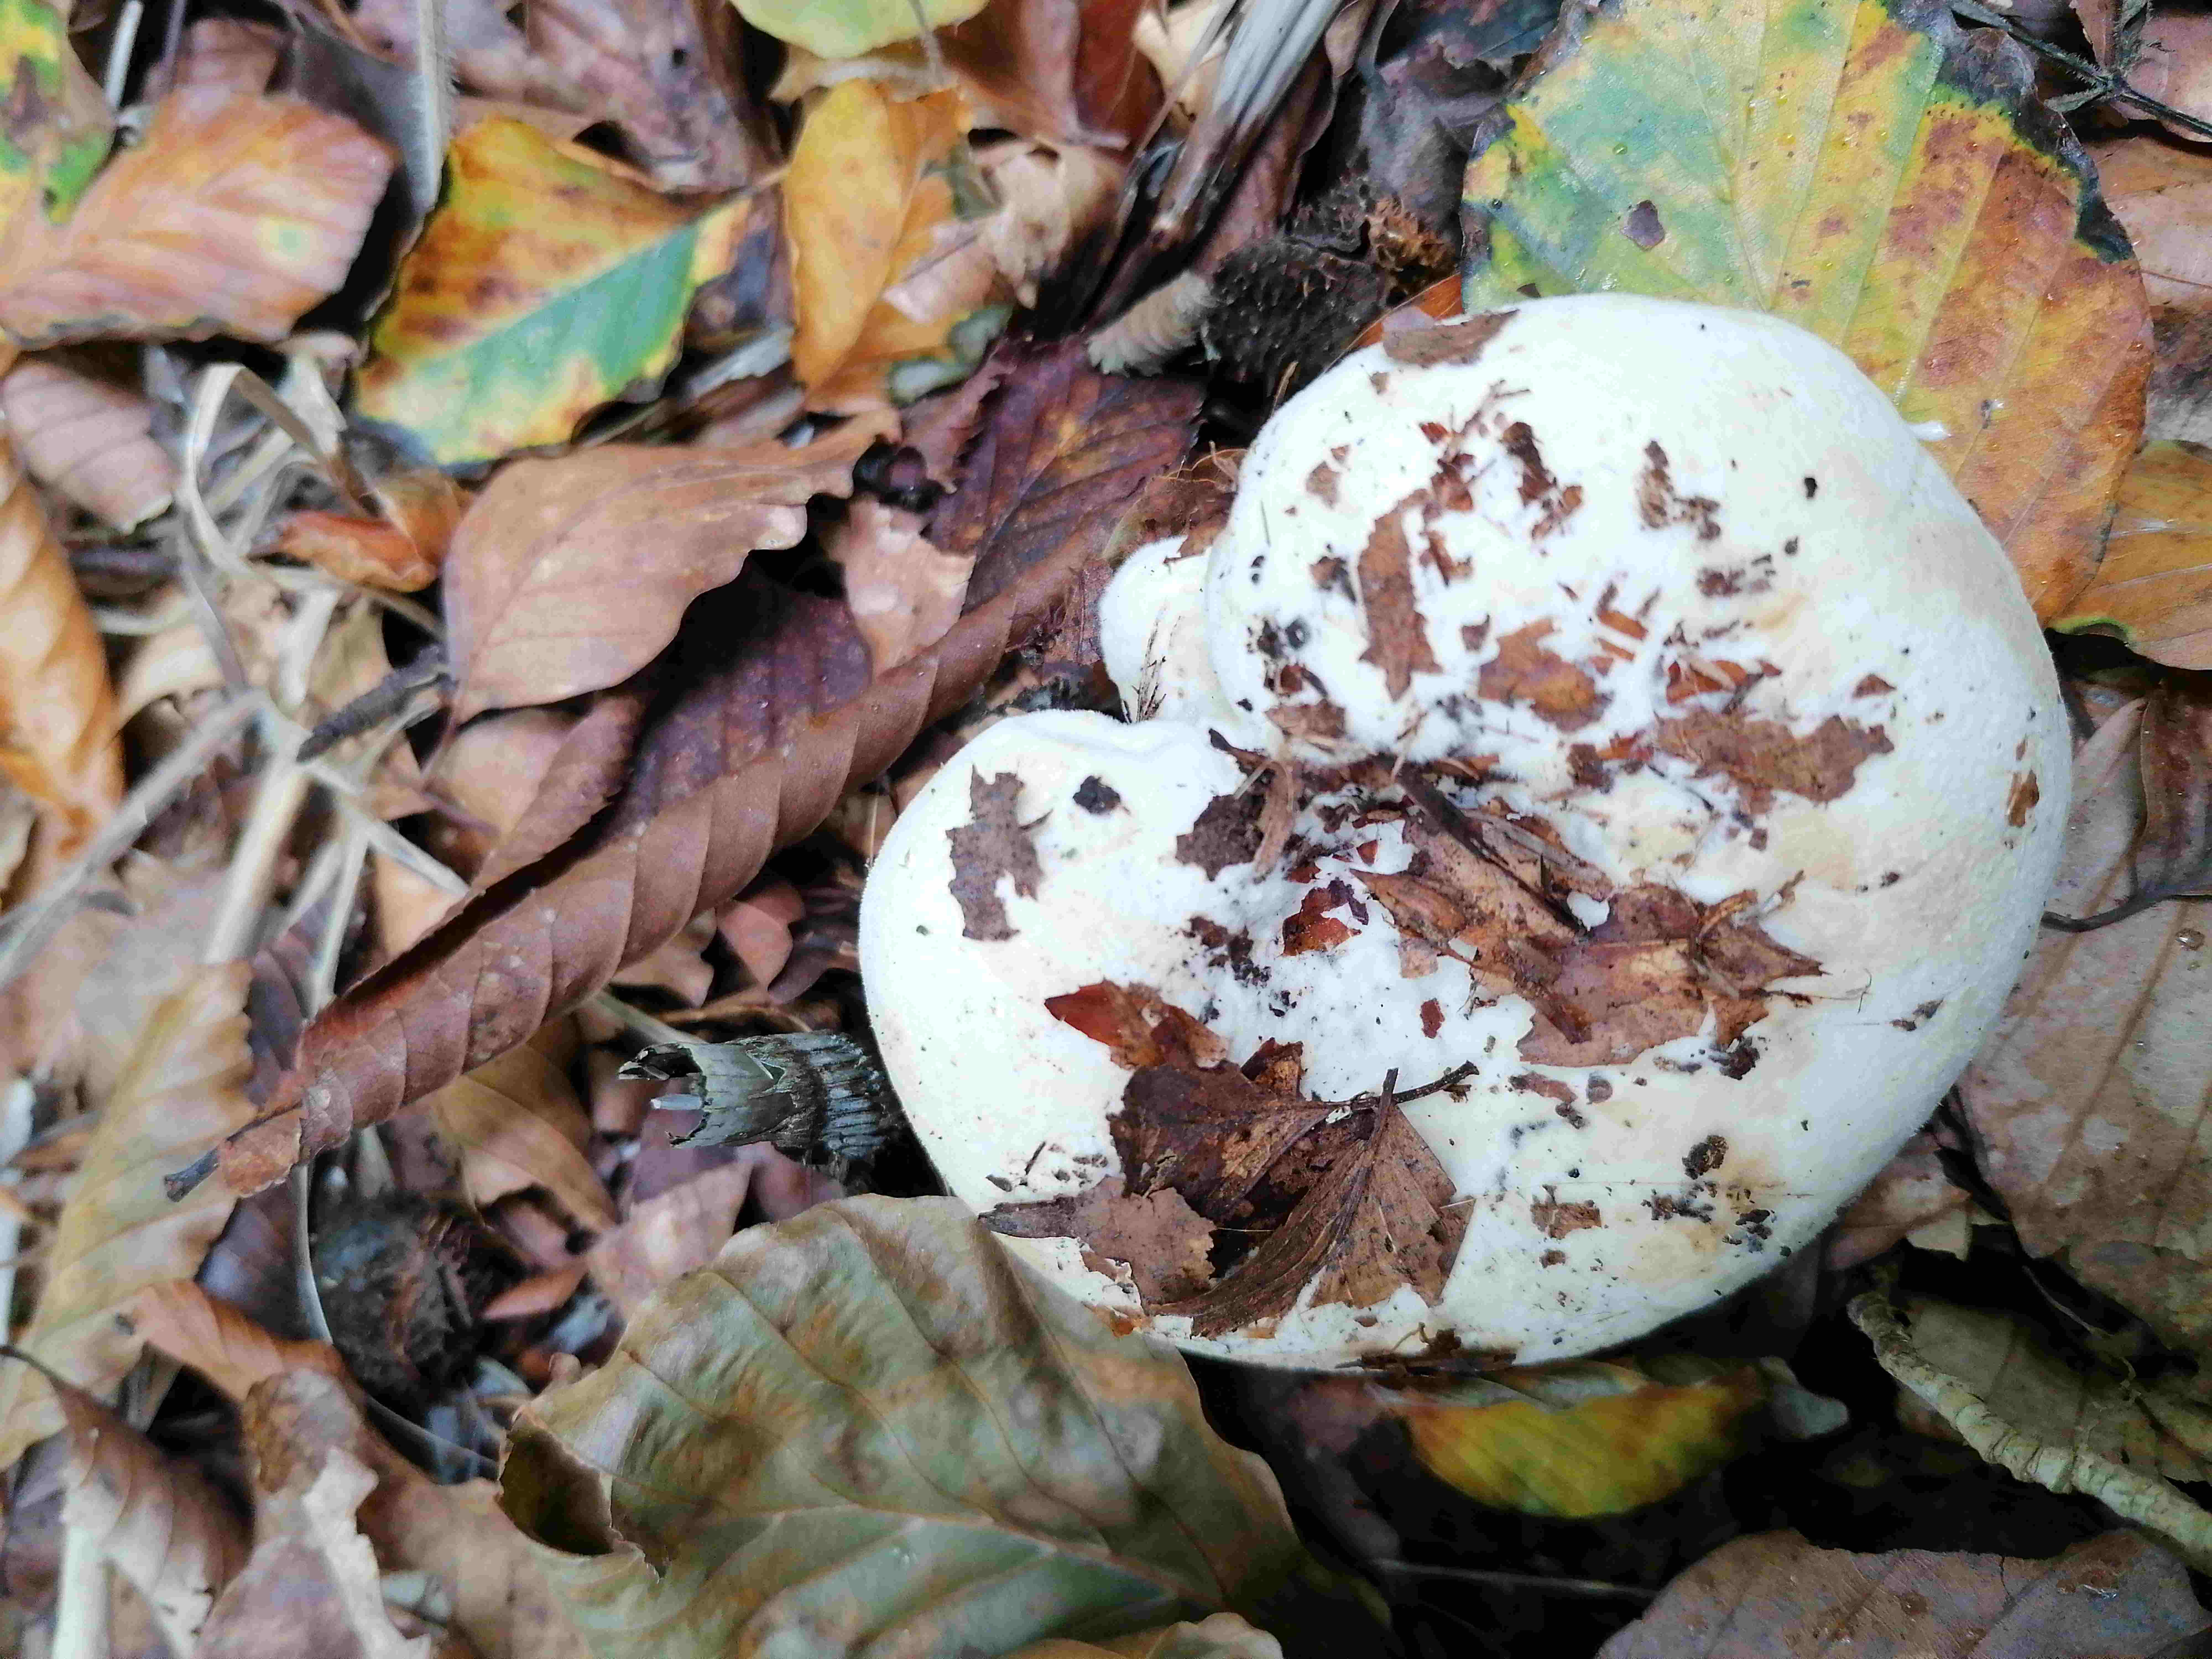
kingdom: Fungi
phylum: Basidiomycota
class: Agaricomycetes
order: Russulales
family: Russulaceae
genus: Lactifluus
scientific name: Lactifluus
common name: mælkehat
